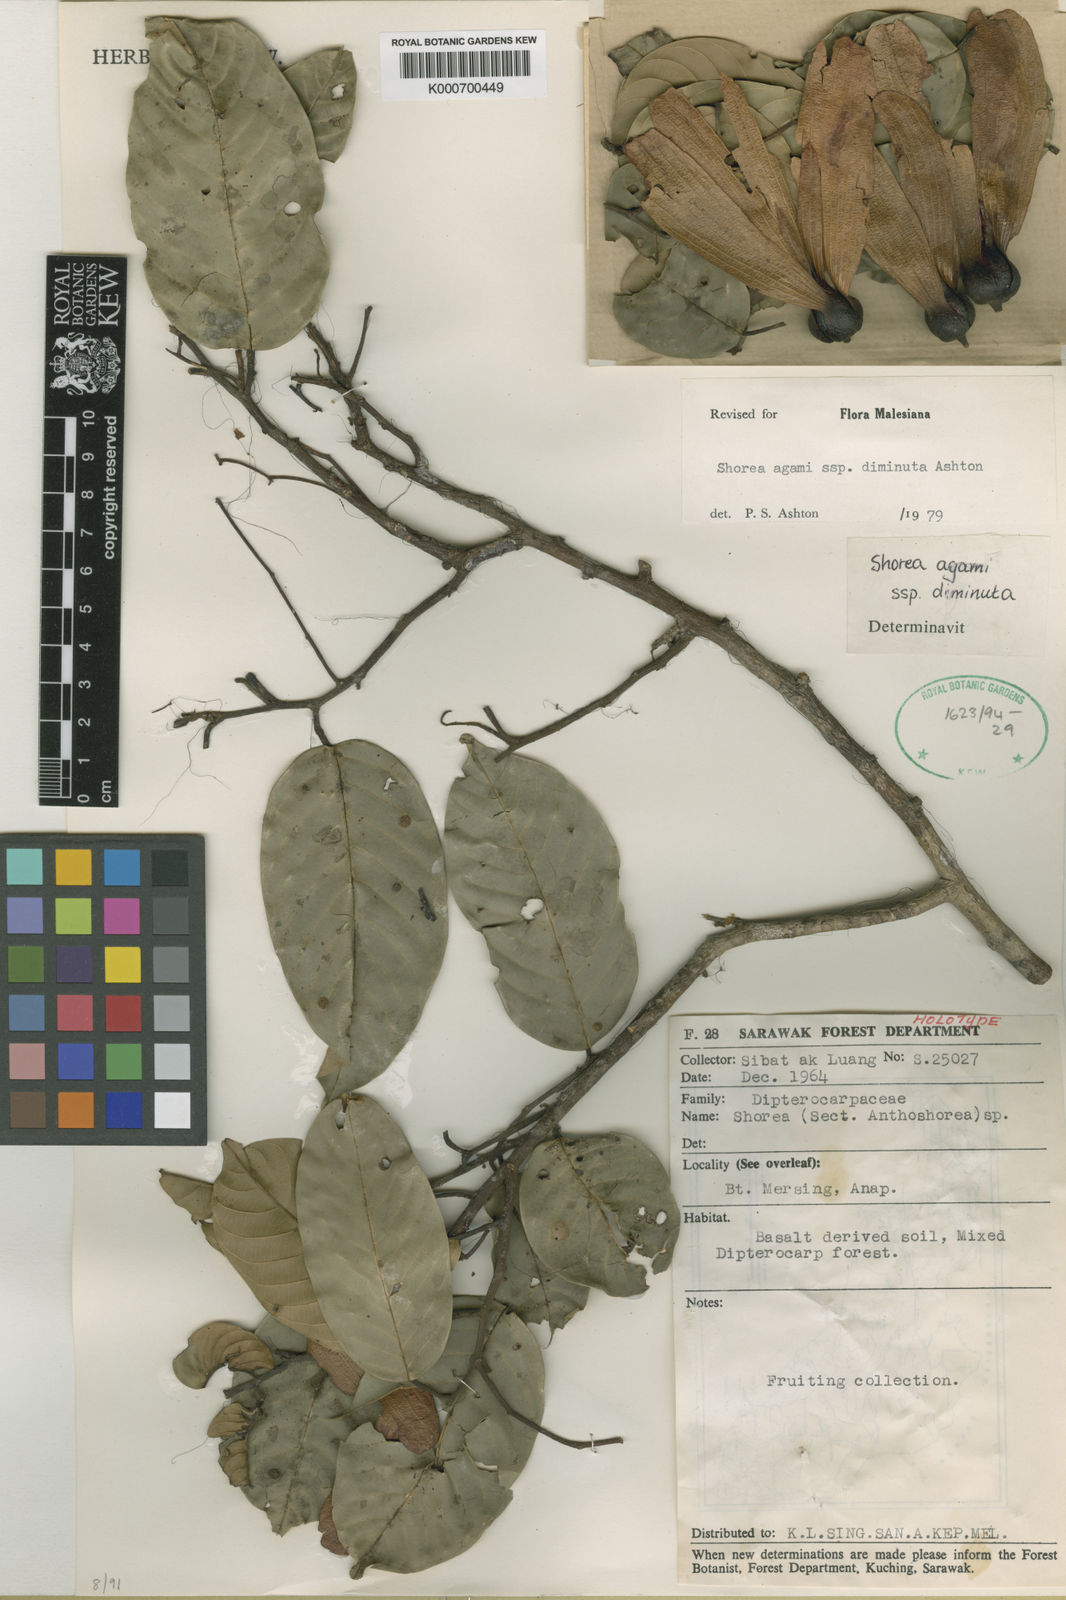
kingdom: Plantae
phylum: Tracheophyta
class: Magnoliopsida
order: Malvales
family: Dipterocarpaceae
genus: Anthoshorea
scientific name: Anthoshorea agami
